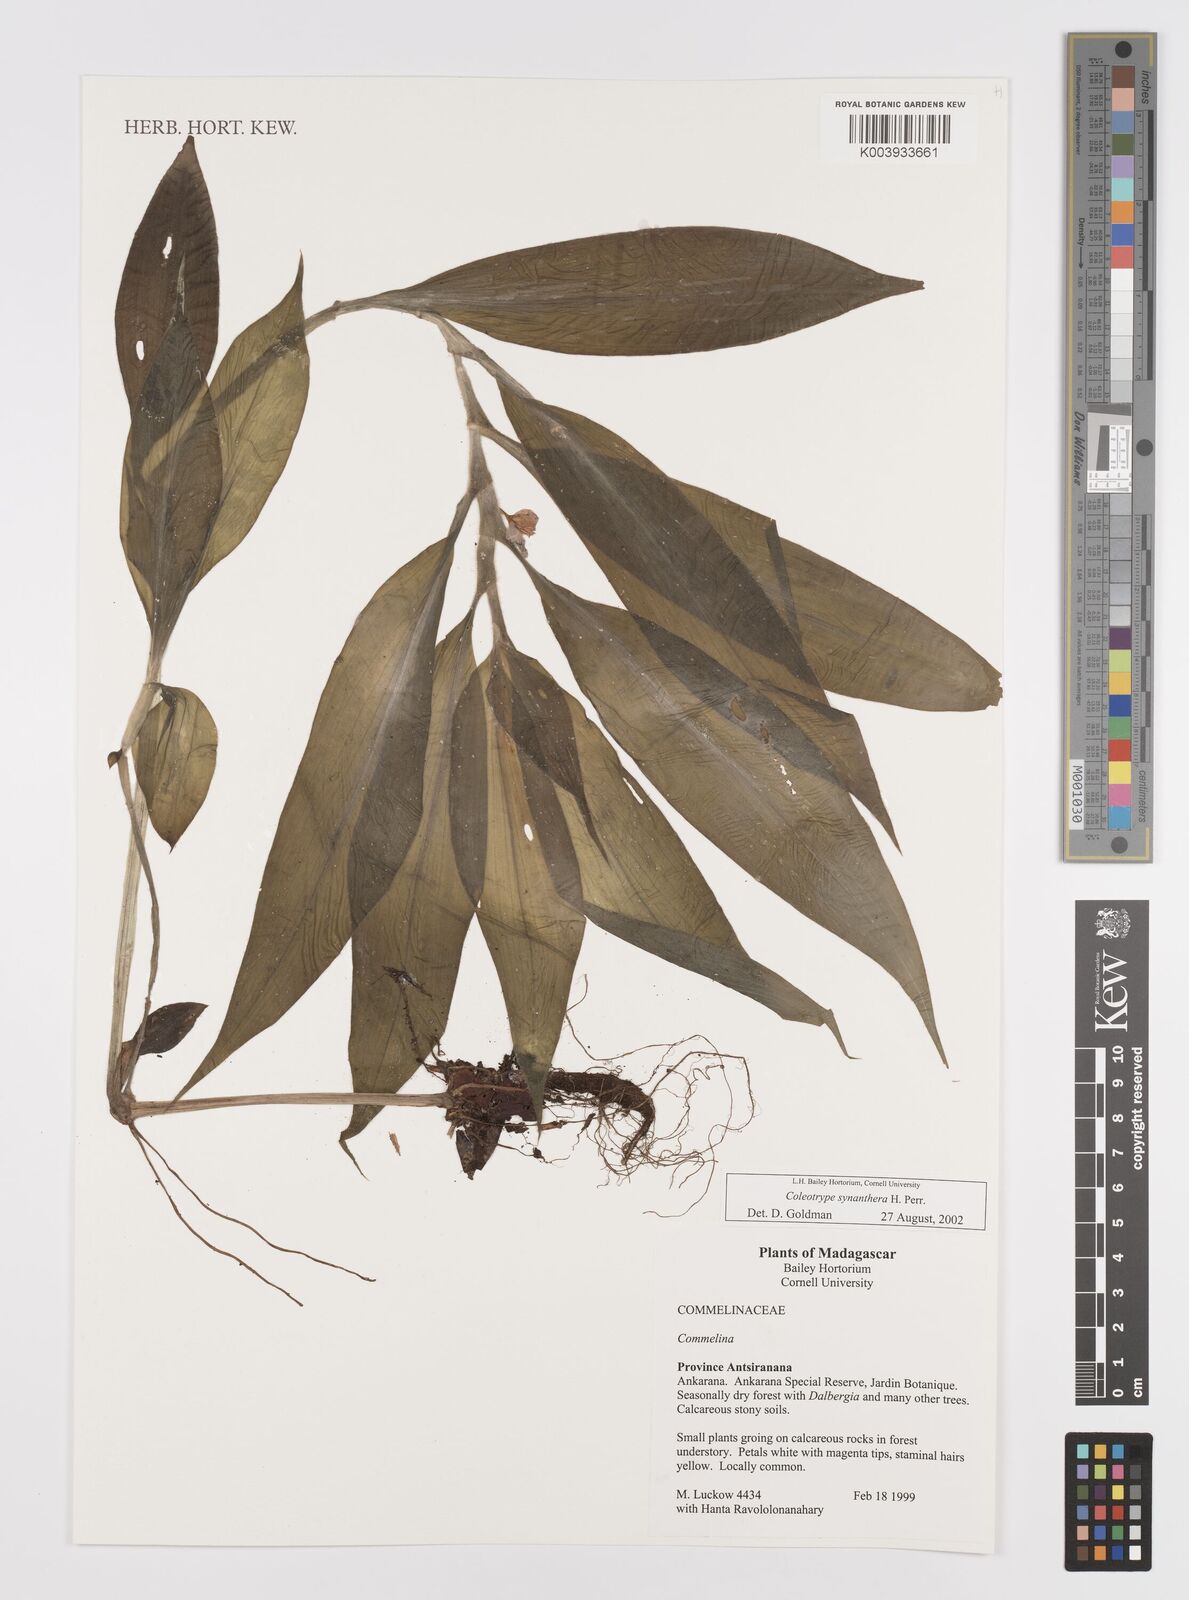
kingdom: Plantae
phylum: Tracheophyta
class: Liliopsida
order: Commelinales
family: Commelinaceae
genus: Coleotrype
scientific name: Coleotrype synanthera
